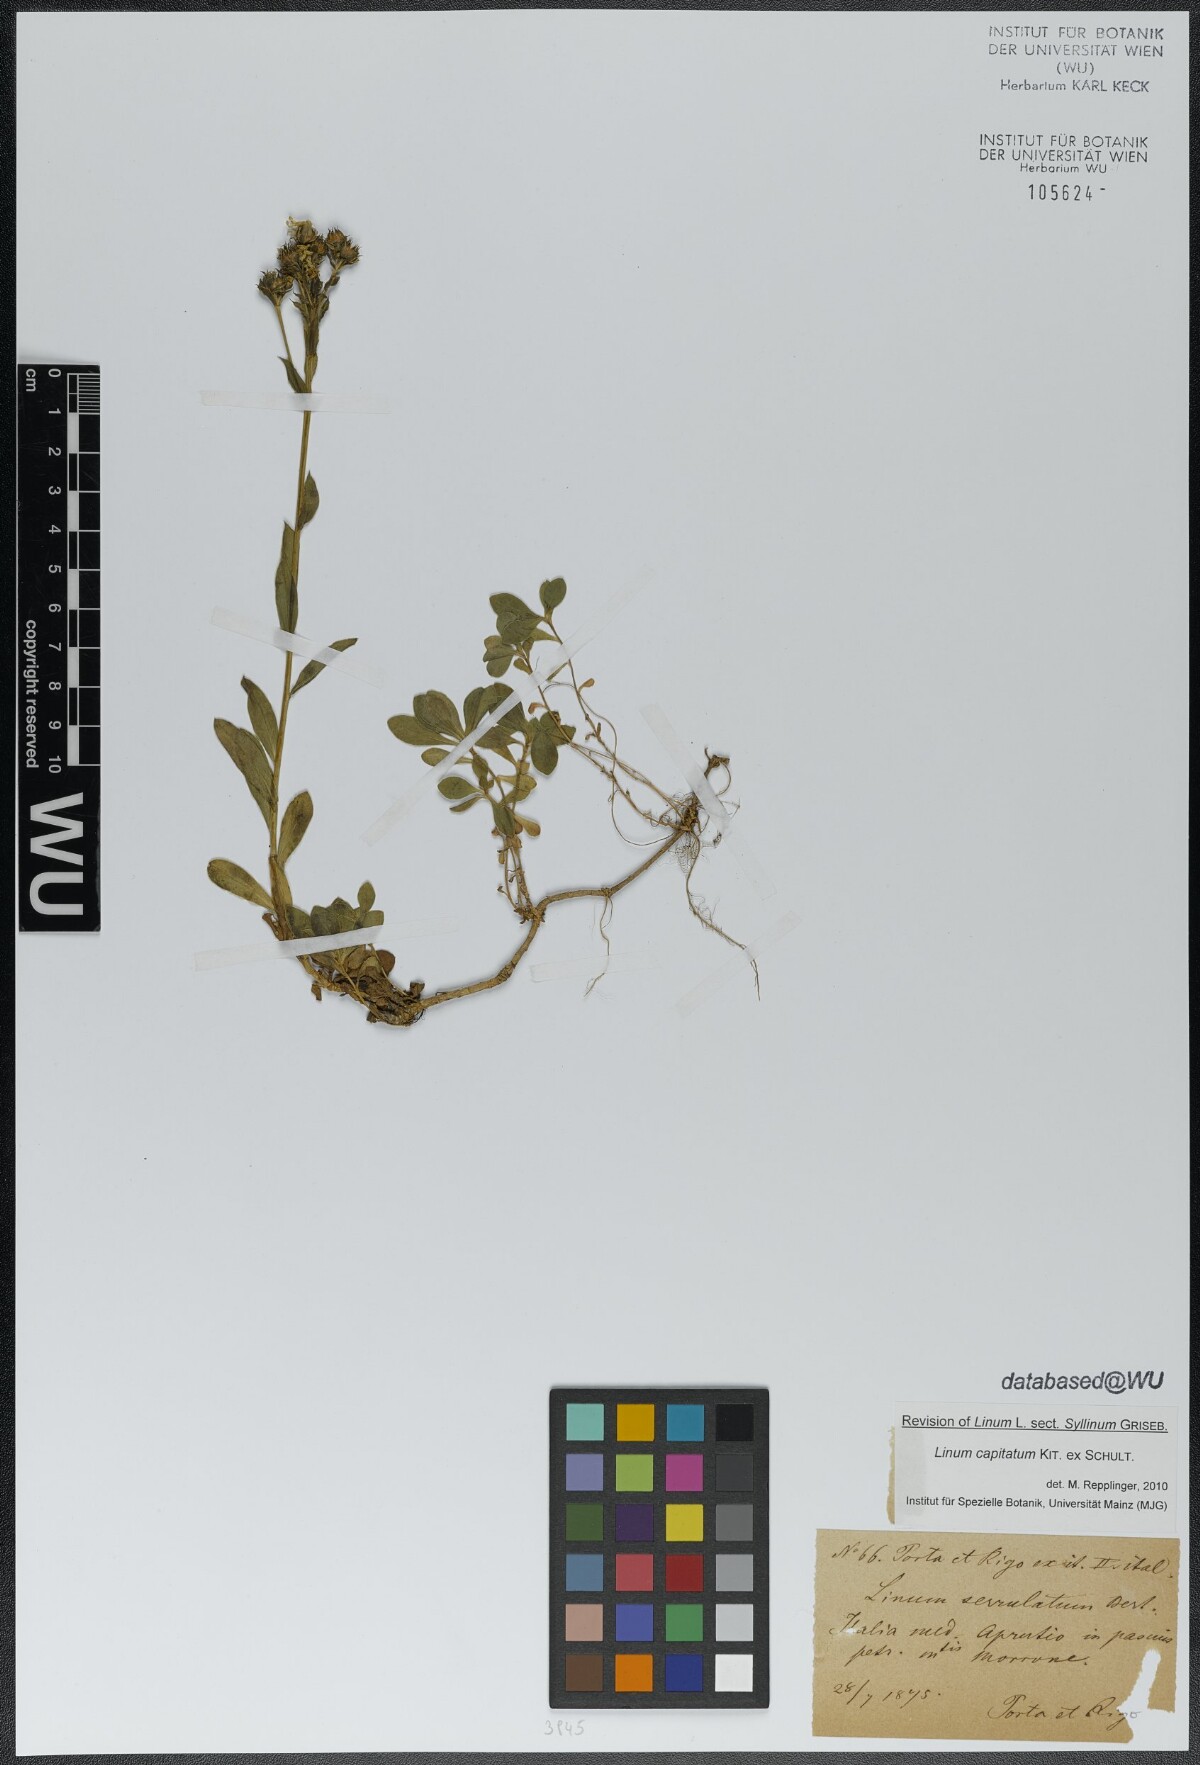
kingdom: Plantae
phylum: Tracheophyta
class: Magnoliopsida
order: Malpighiales
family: Linaceae
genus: Linum
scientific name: Linum capitatum
